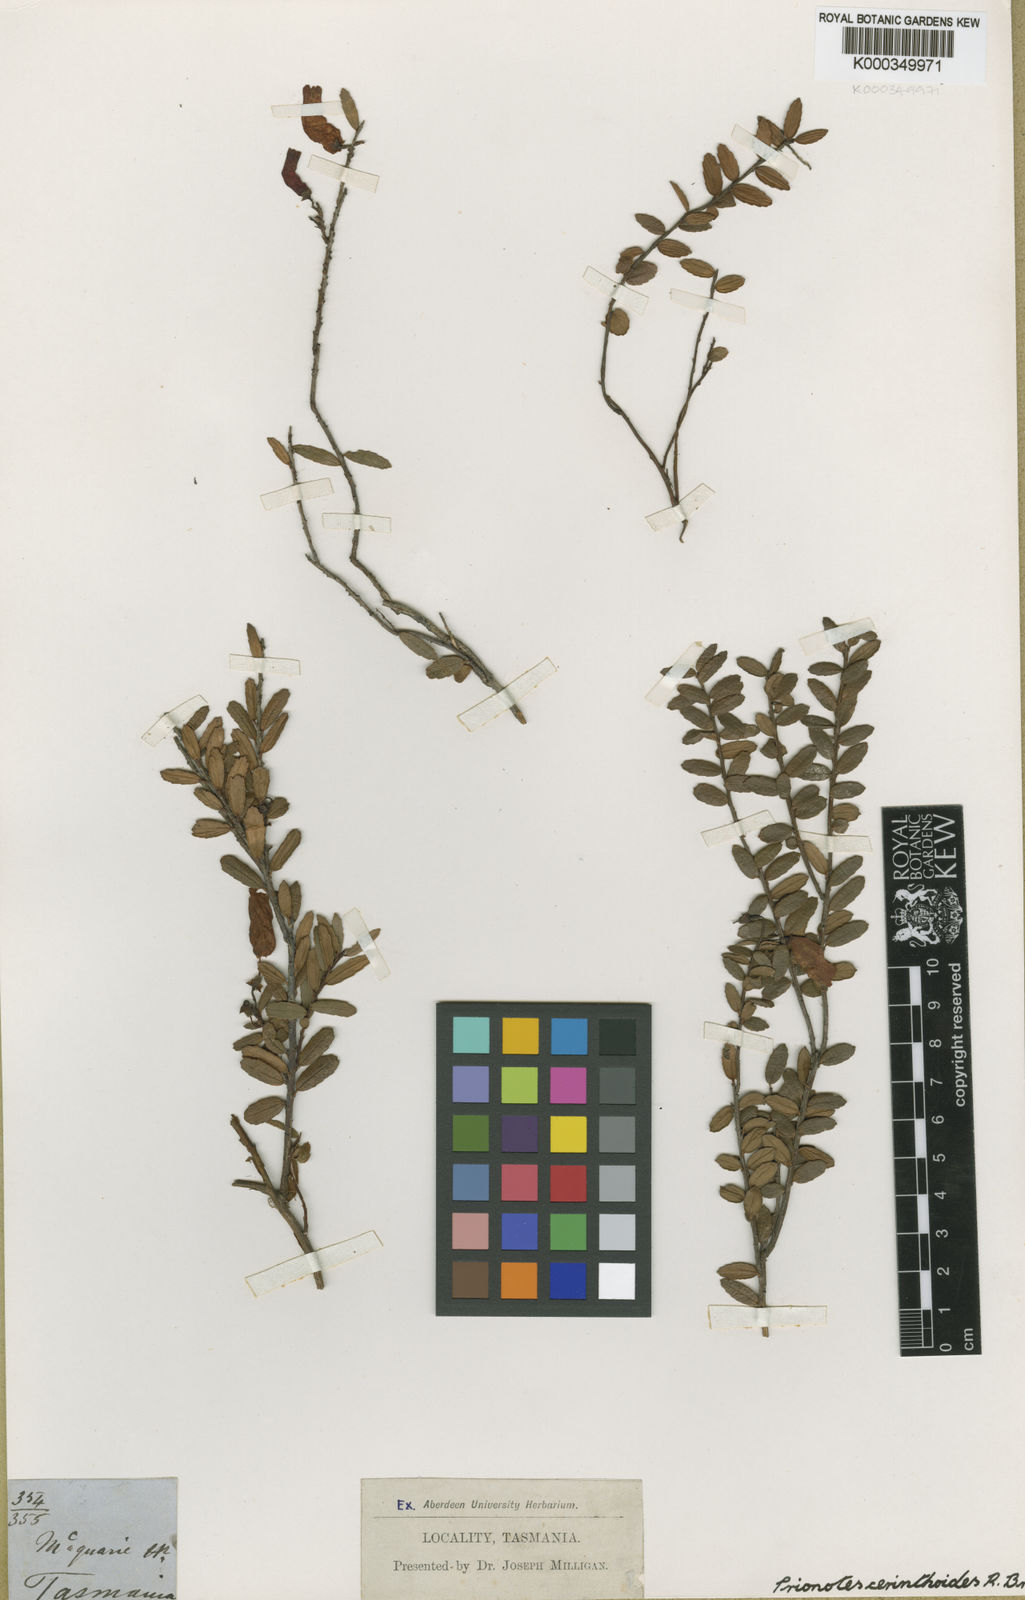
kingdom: Plantae
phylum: Tracheophyta
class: Magnoliopsida
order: Ericales
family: Ericaceae
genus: Prionotes
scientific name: Prionotes cerinthoides
